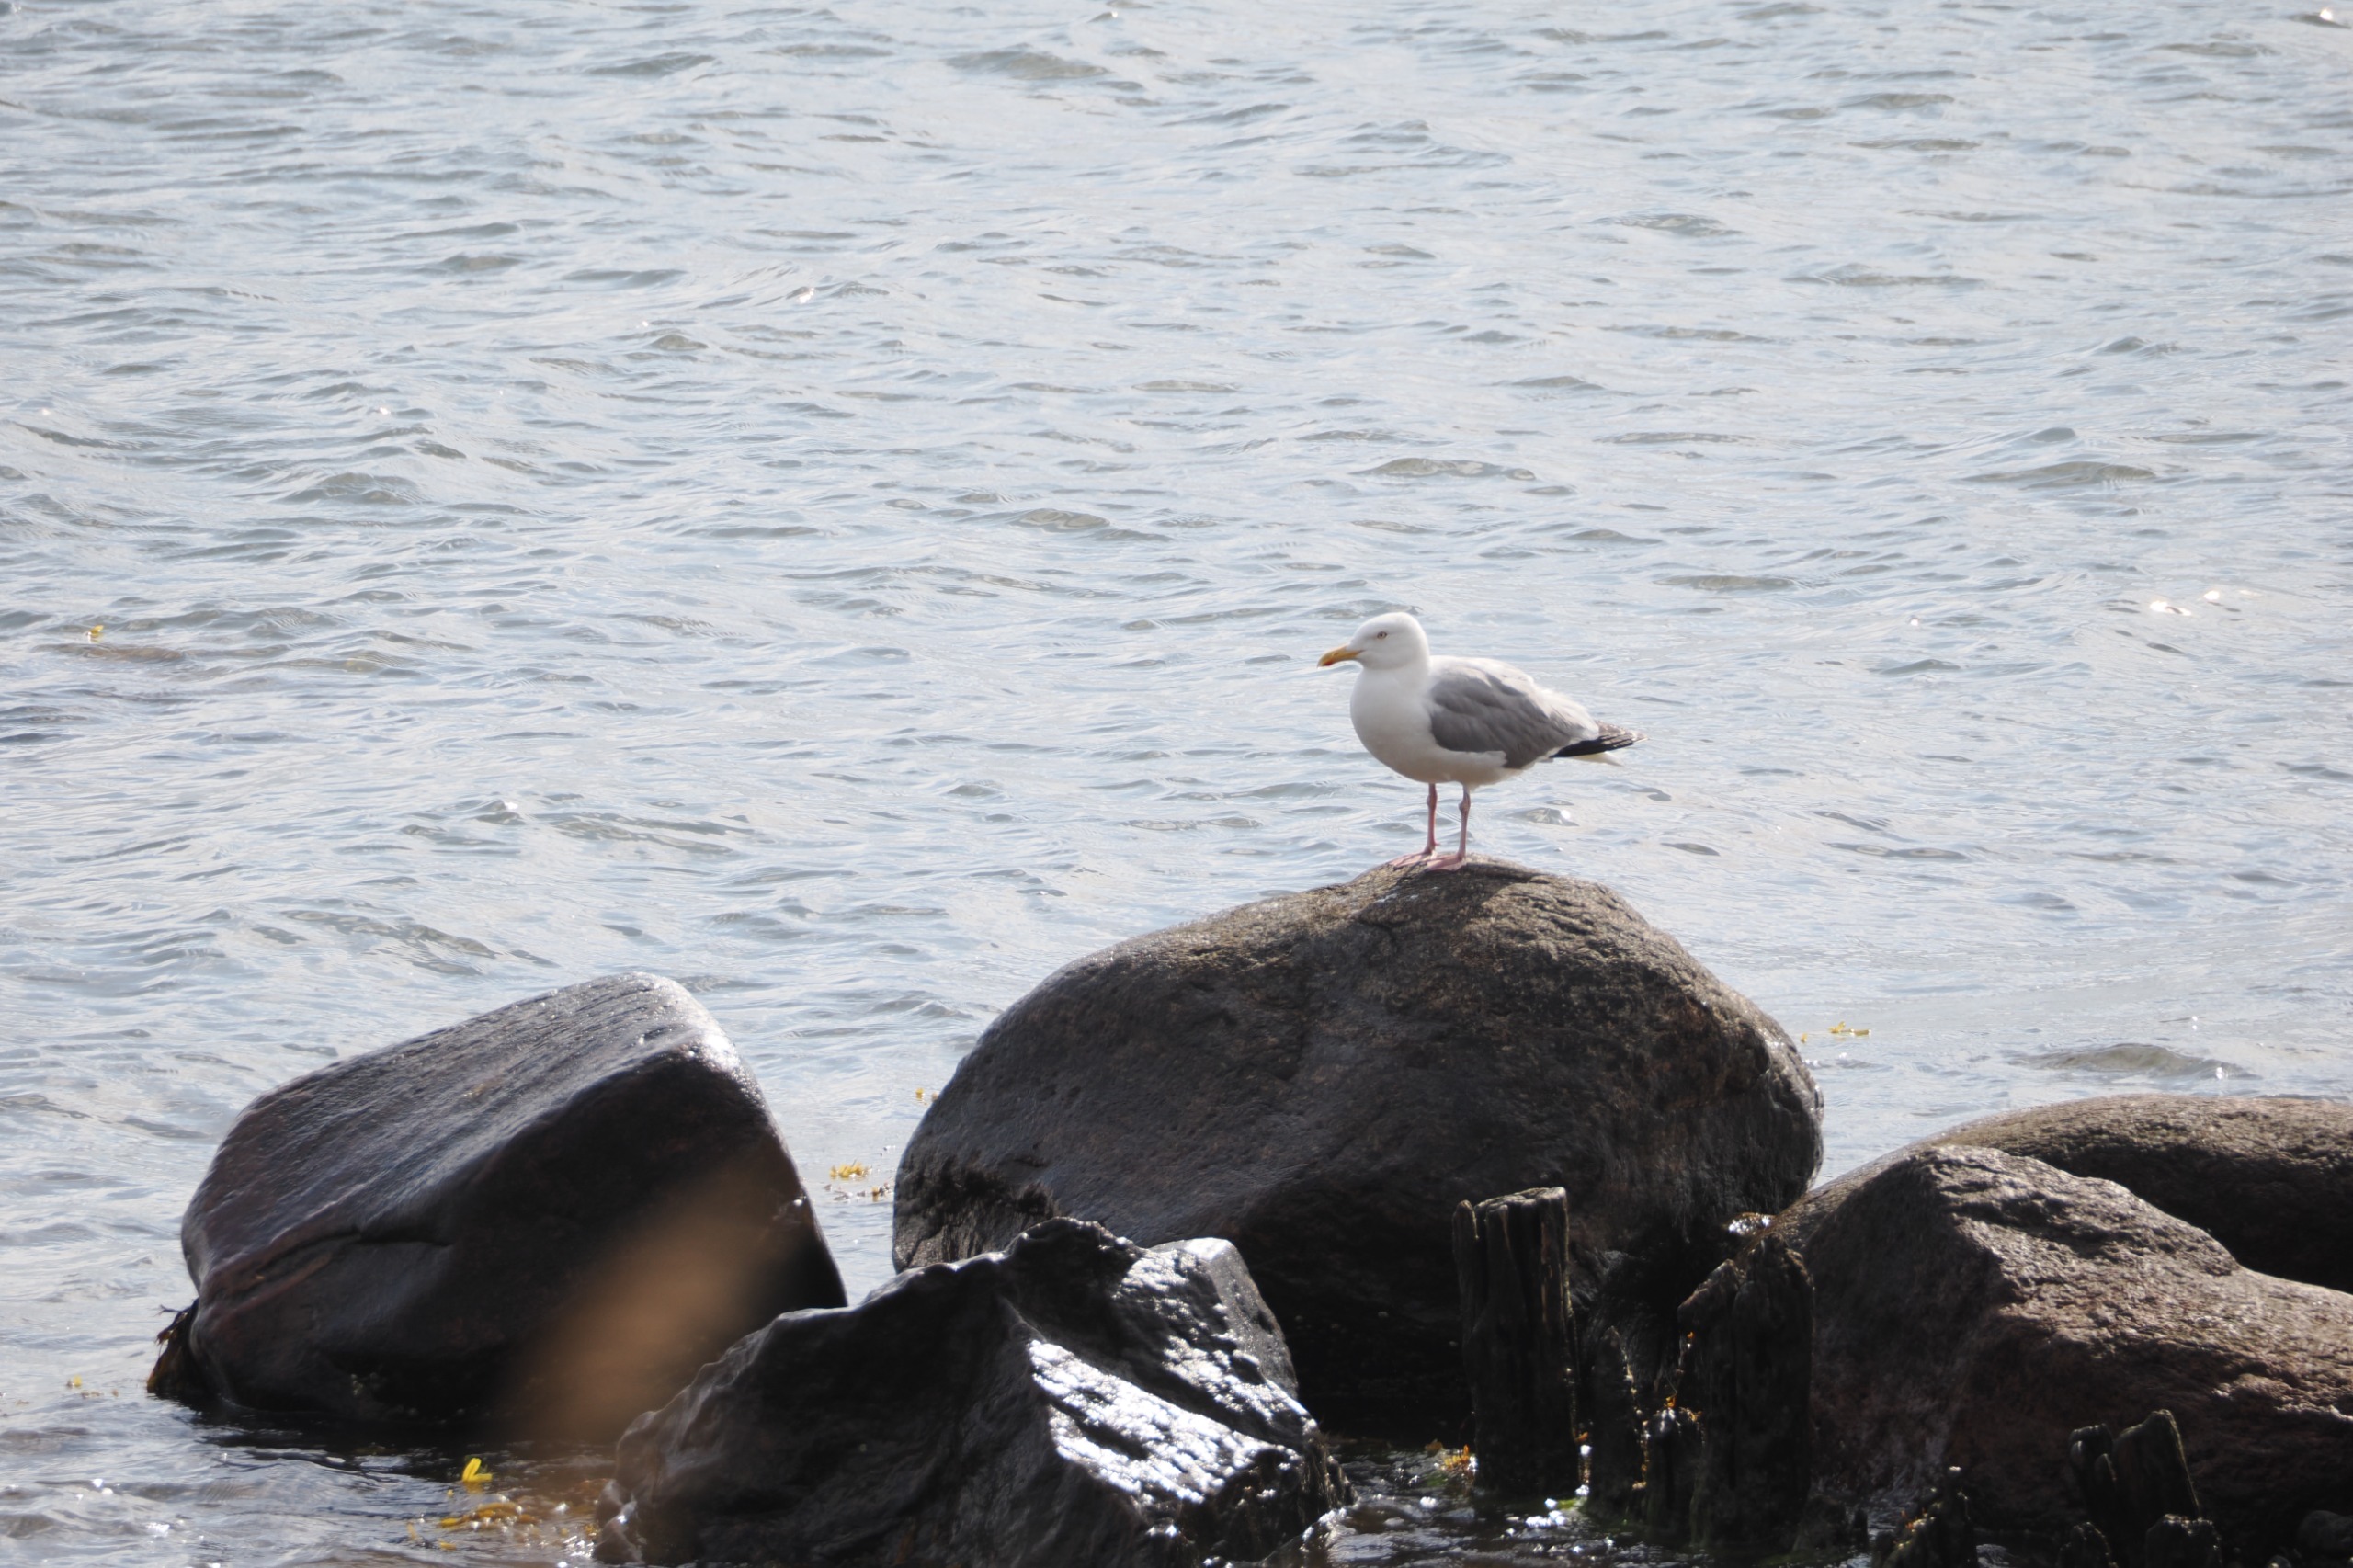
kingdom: Animalia
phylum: Chordata
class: Aves
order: Charadriiformes
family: Laridae
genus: Larus
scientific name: Larus argentatus
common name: Sølvmåge
